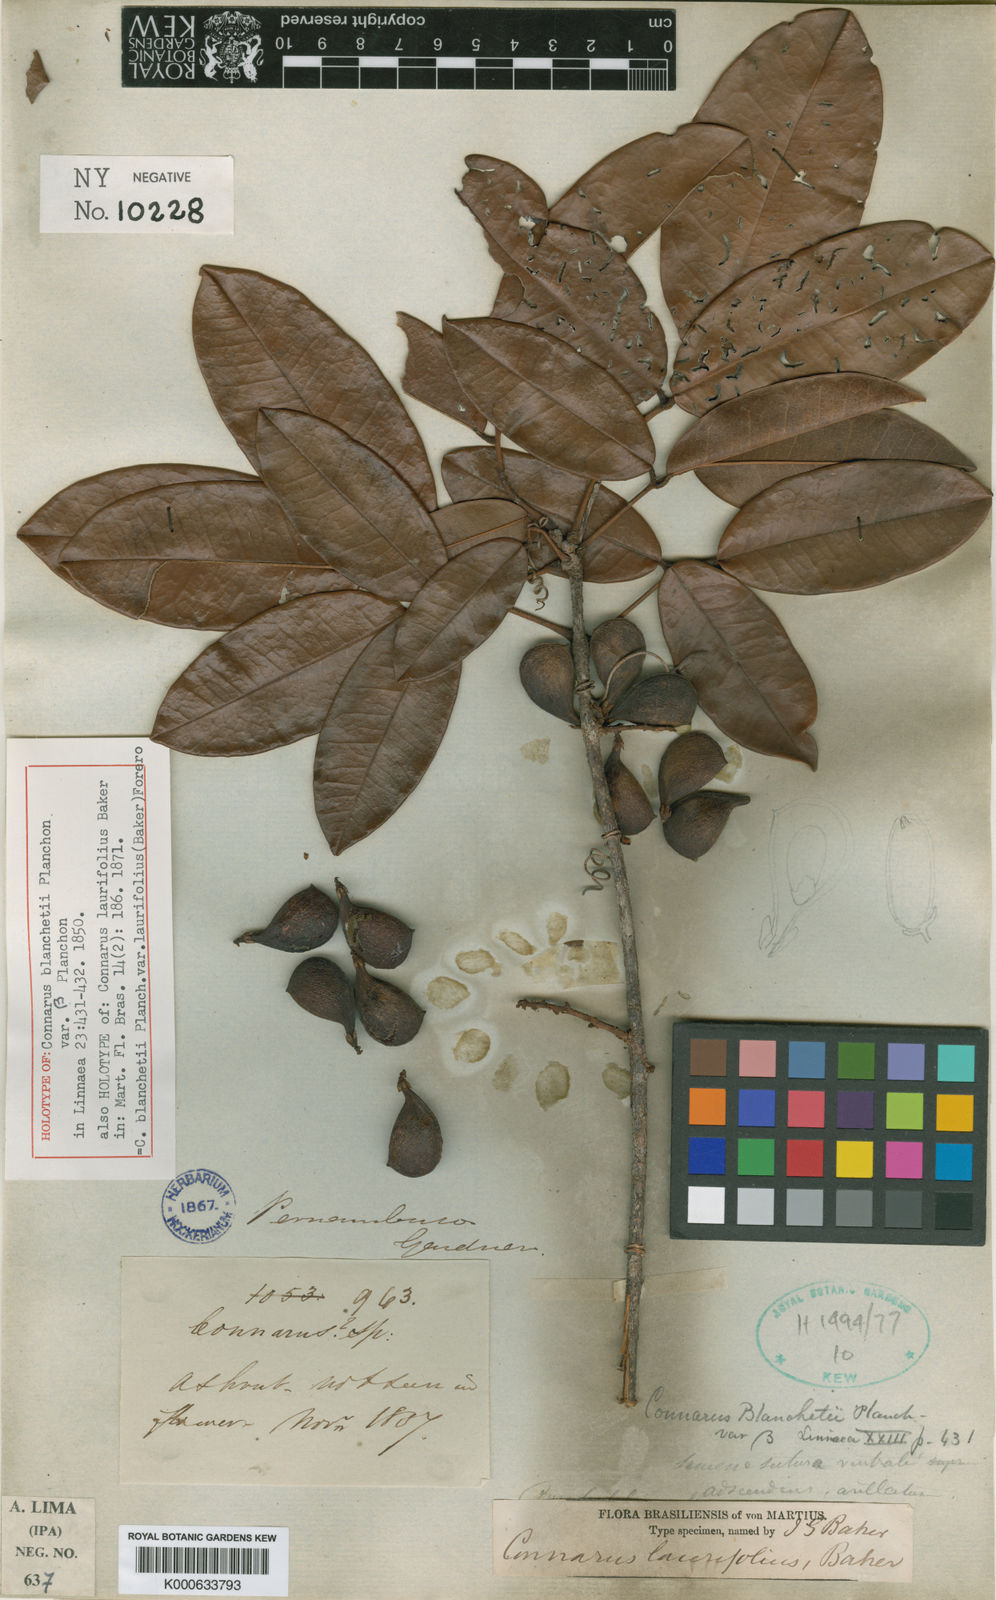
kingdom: Plantae
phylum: Tracheophyta
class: Magnoliopsida
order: Oxalidales
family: Connaraceae
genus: Connarus
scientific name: Connarus blanchetii
